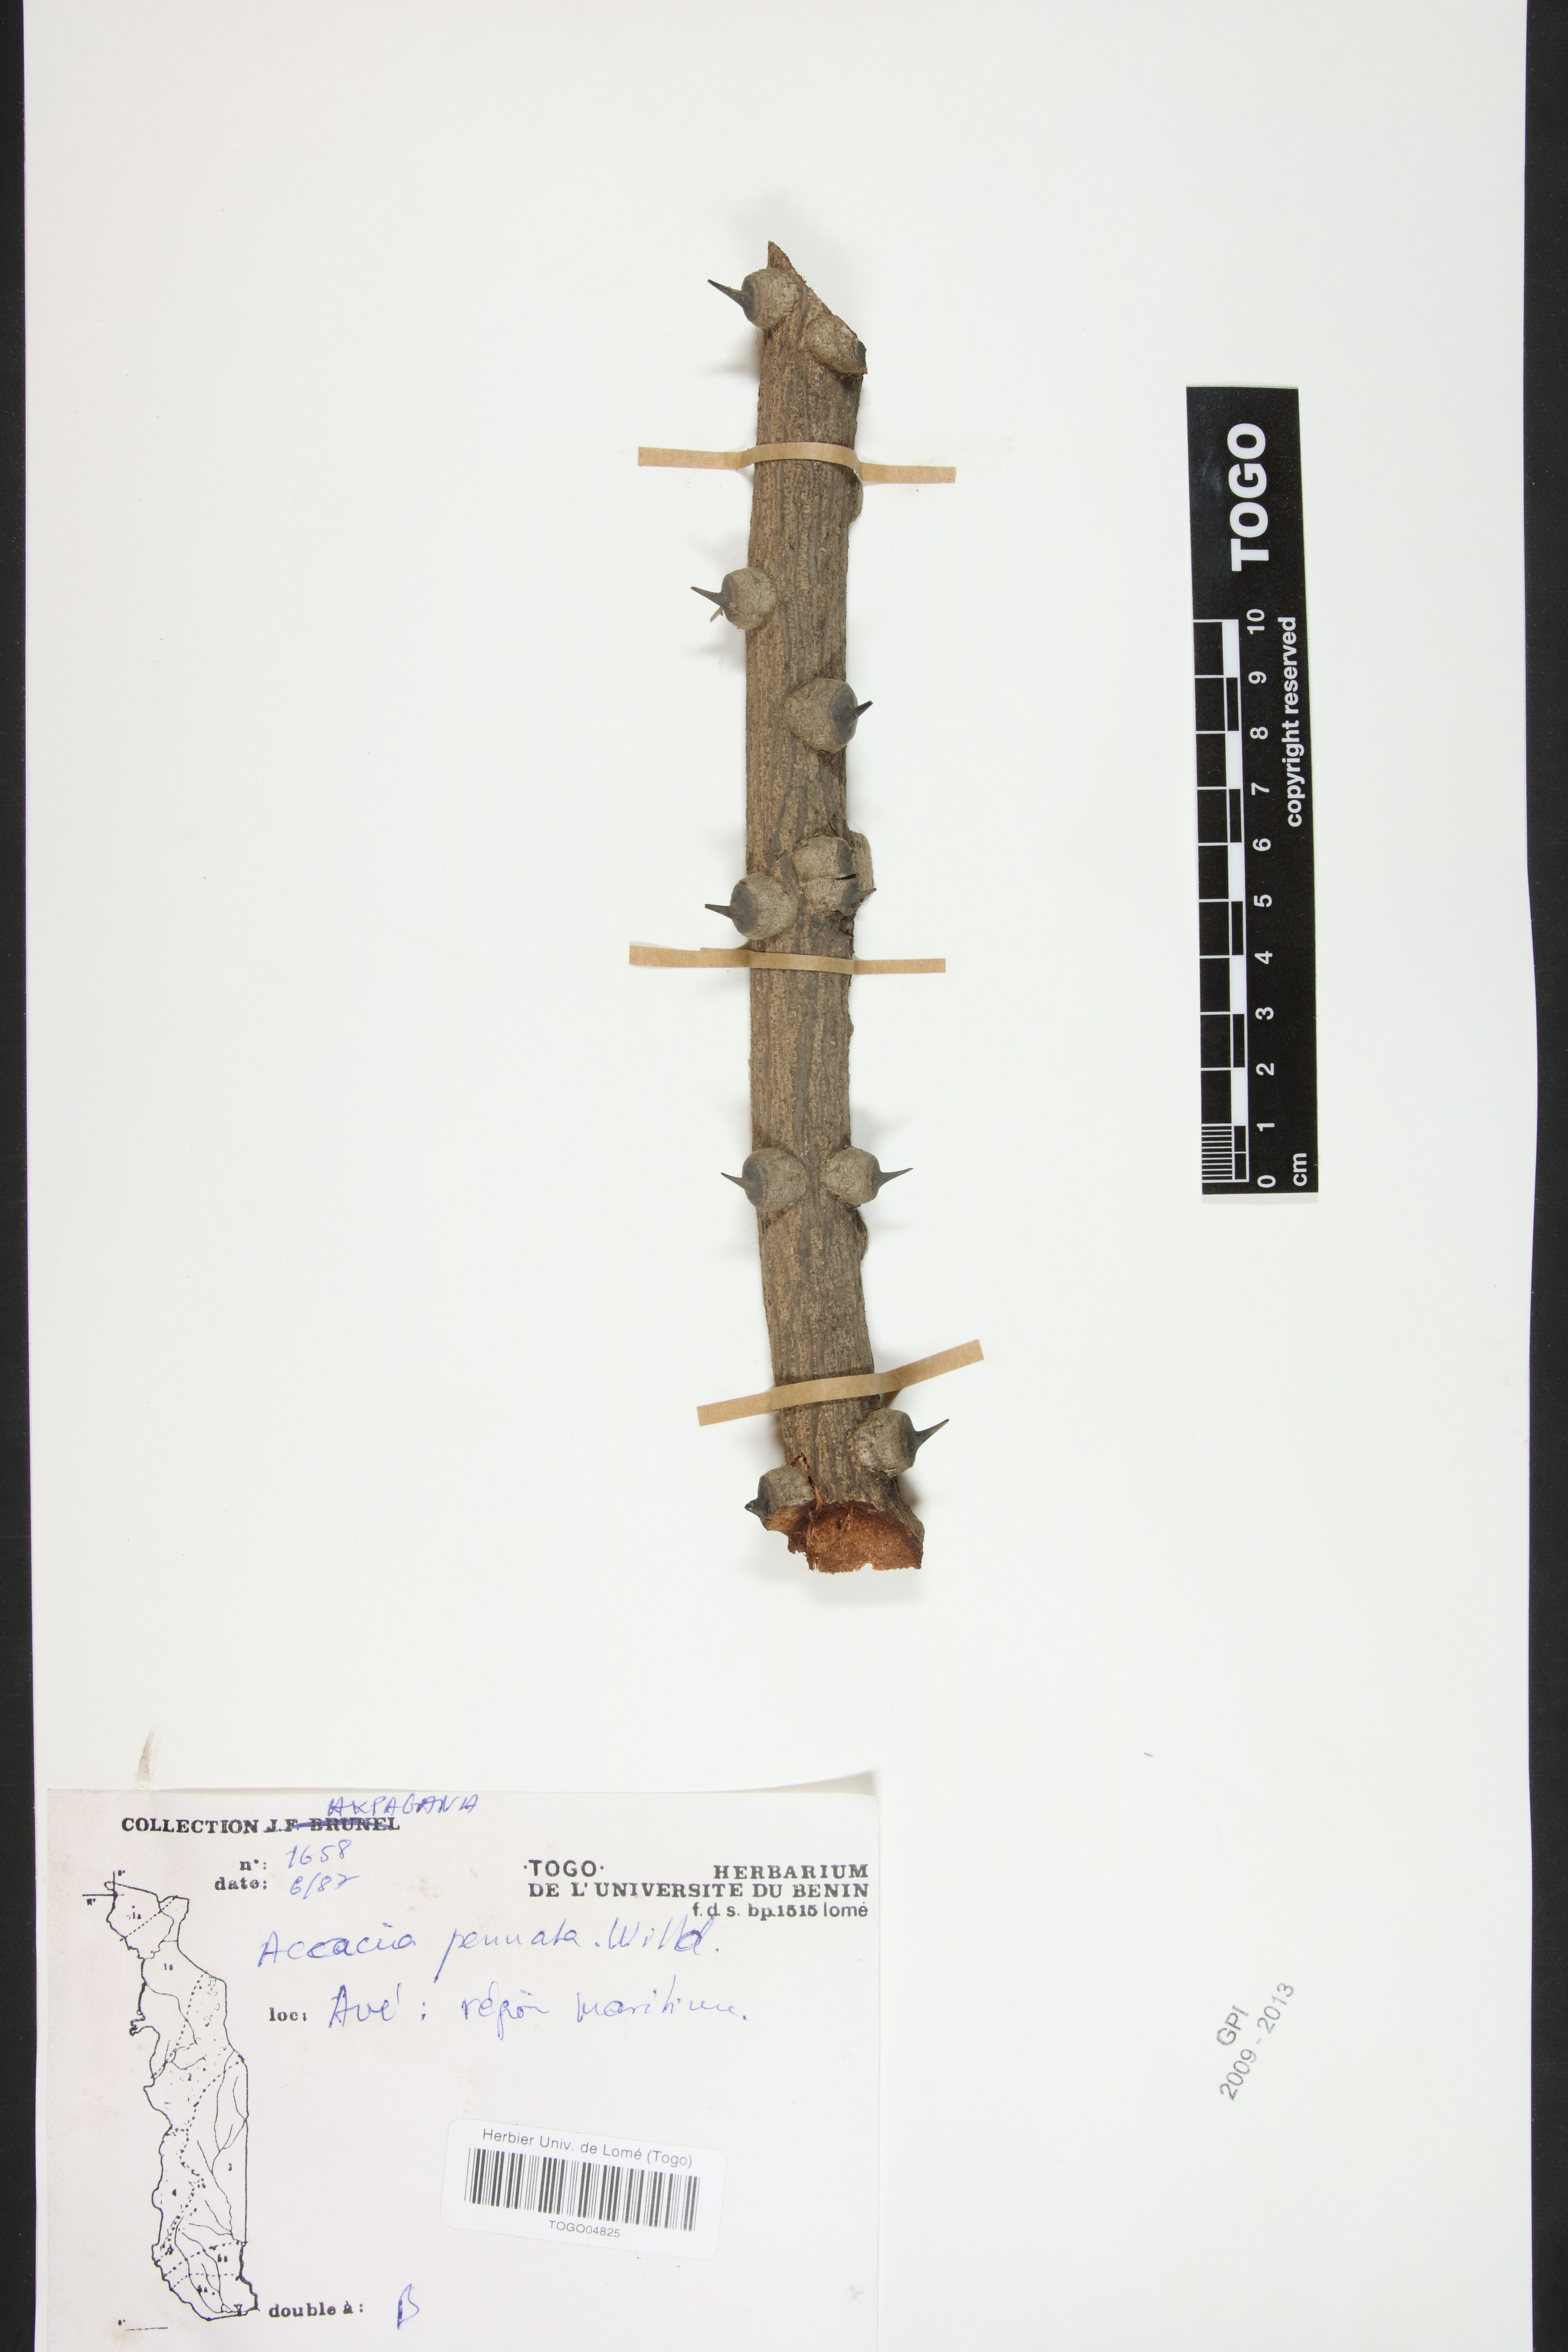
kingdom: Plantae
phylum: Tracheophyta
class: Magnoliopsida
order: Lamiales
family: Acanthaceae
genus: Hygrophila
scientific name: Hygrophila mediatrix
